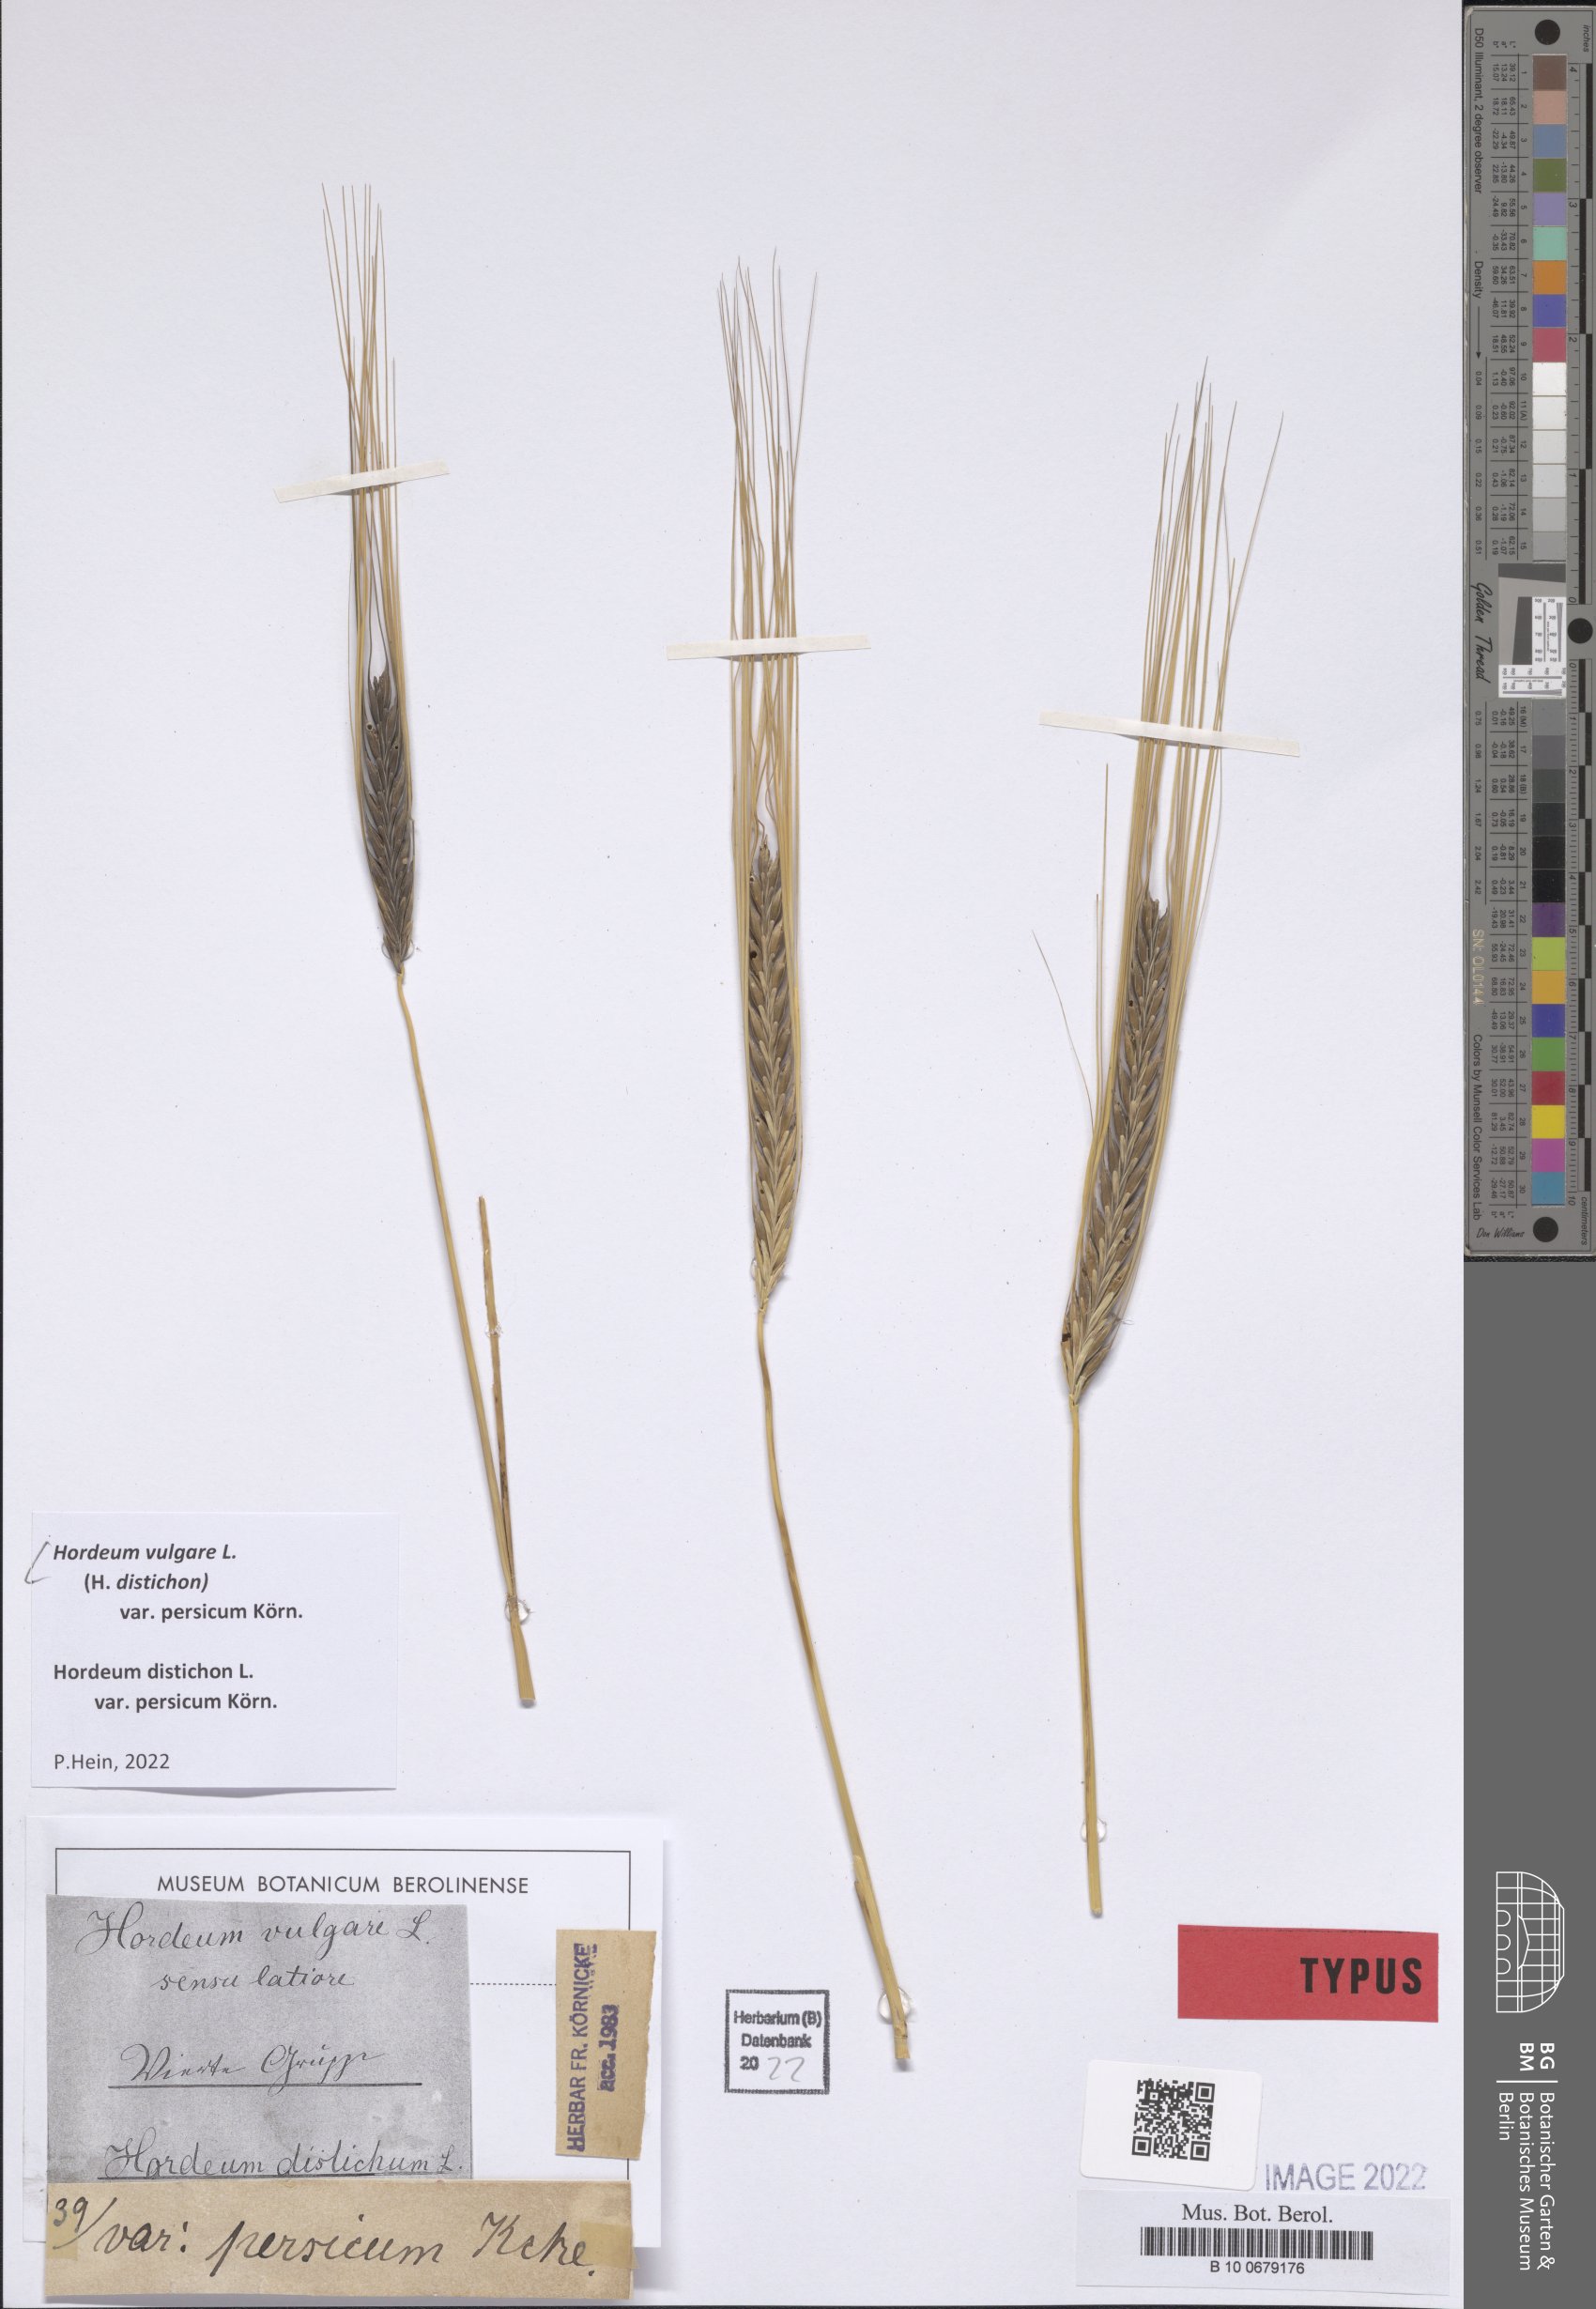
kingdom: Plantae
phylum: Tracheophyta
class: Liliopsida
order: Poales
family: Poaceae
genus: Hordeum
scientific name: Hordeum vulgare
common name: Common barley
